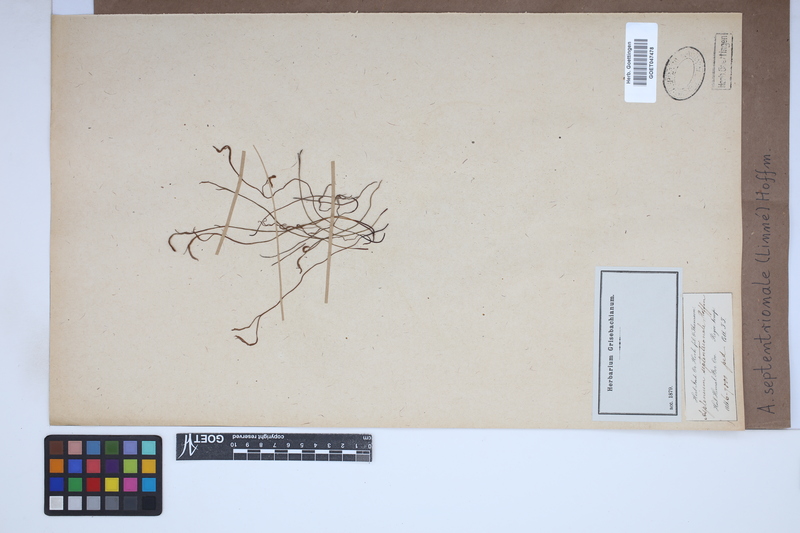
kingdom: Plantae
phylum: Tracheophyta
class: Polypodiopsida
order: Polypodiales
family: Aspleniaceae
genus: Asplenium
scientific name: Asplenium septentrionale
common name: Forked spleenwort
